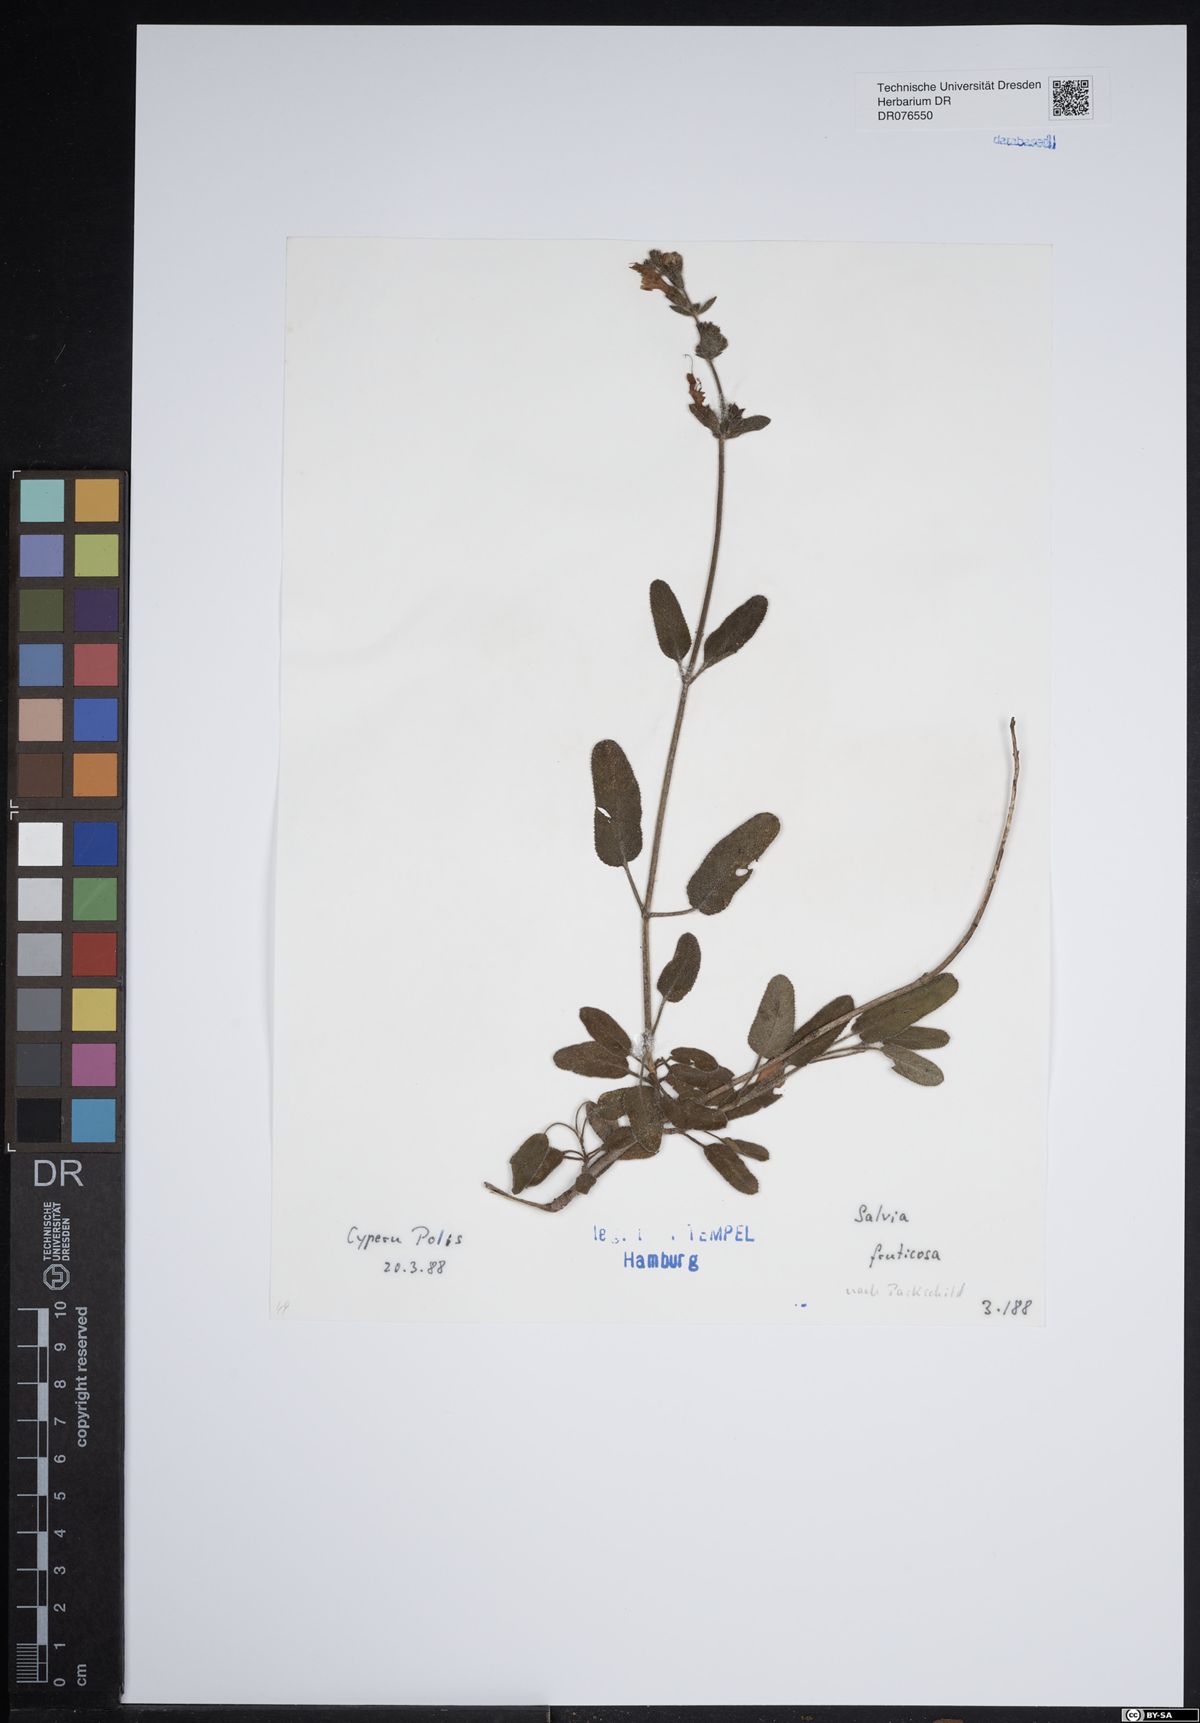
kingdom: Plantae
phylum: Tracheophyta
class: Magnoliopsida
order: Lamiales
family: Lamiaceae
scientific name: Lamiaceae
